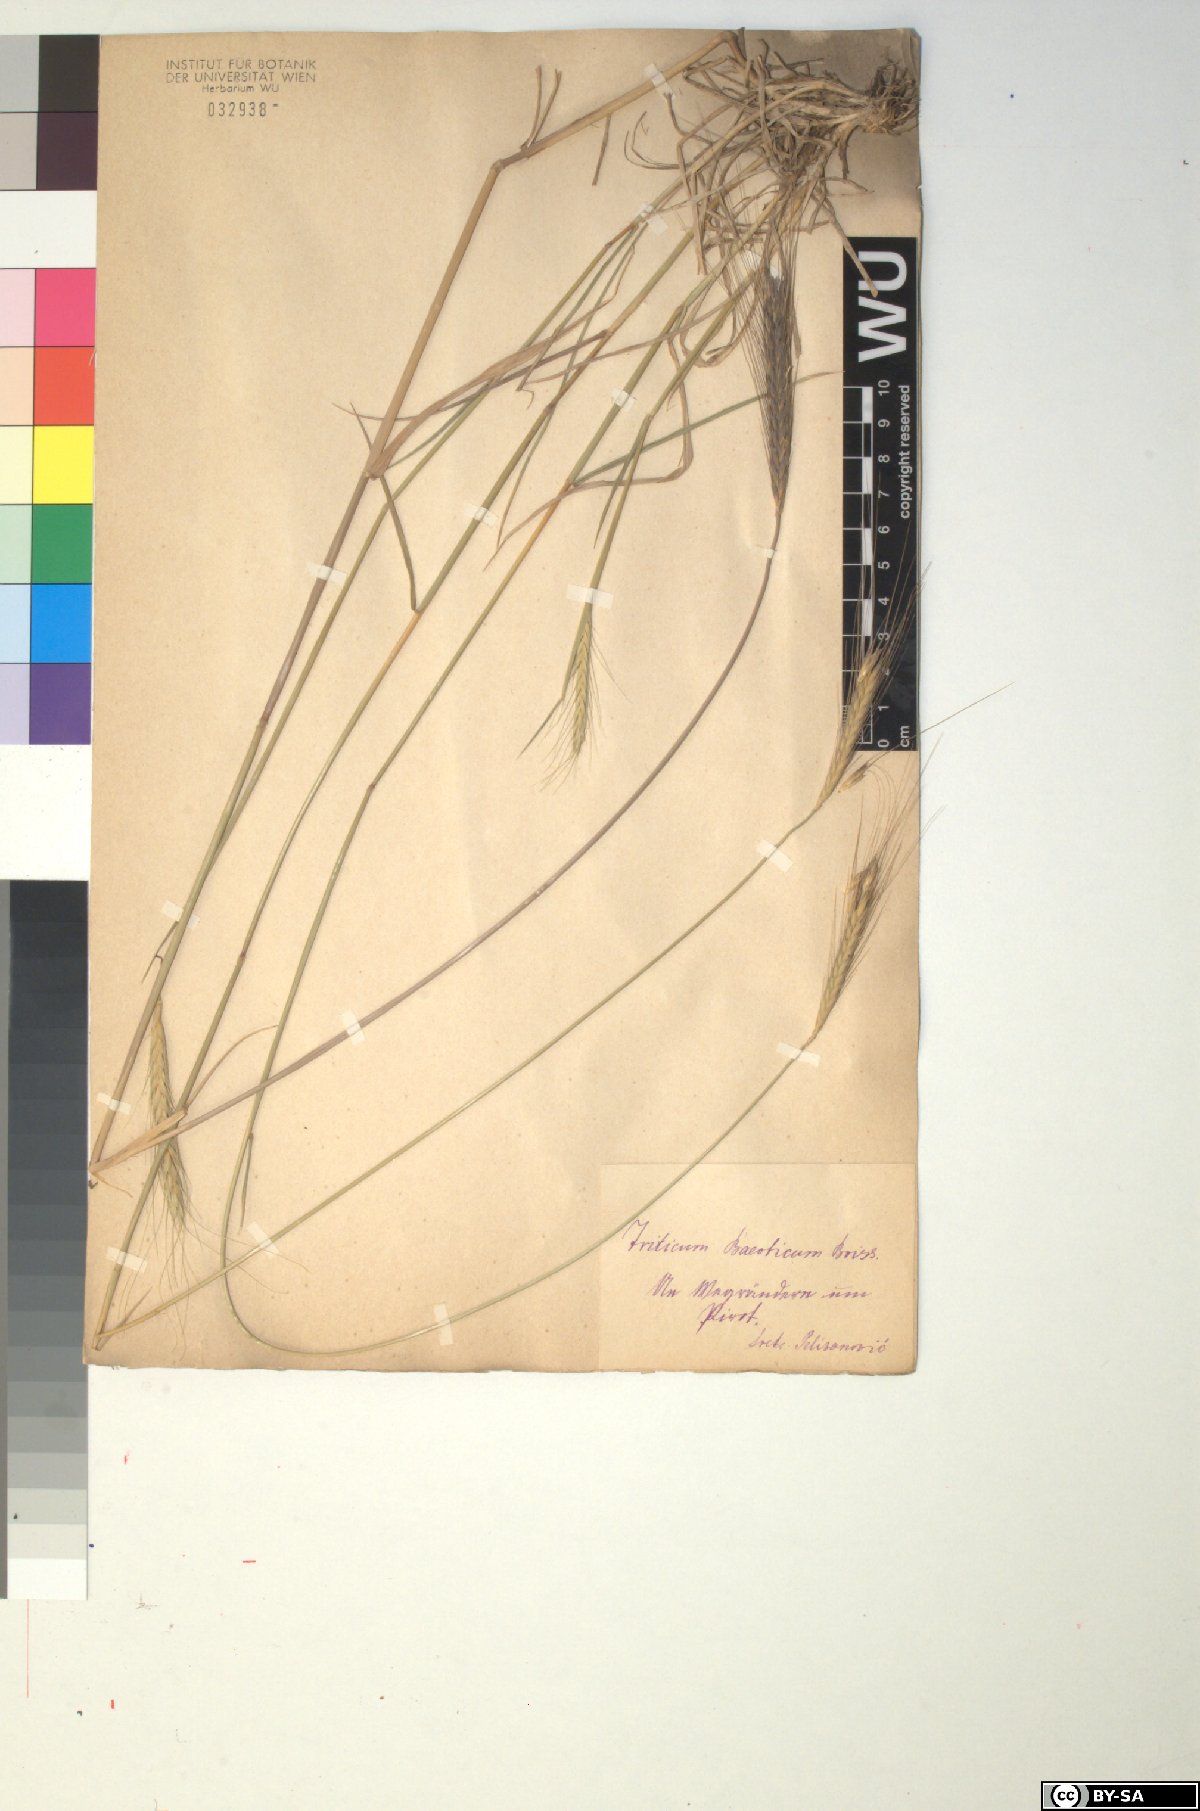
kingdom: Plantae
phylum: Tracheophyta
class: Liliopsida
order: Poales
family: Poaceae
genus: Triticum
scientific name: Triticum monococcum
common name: Einkorn
